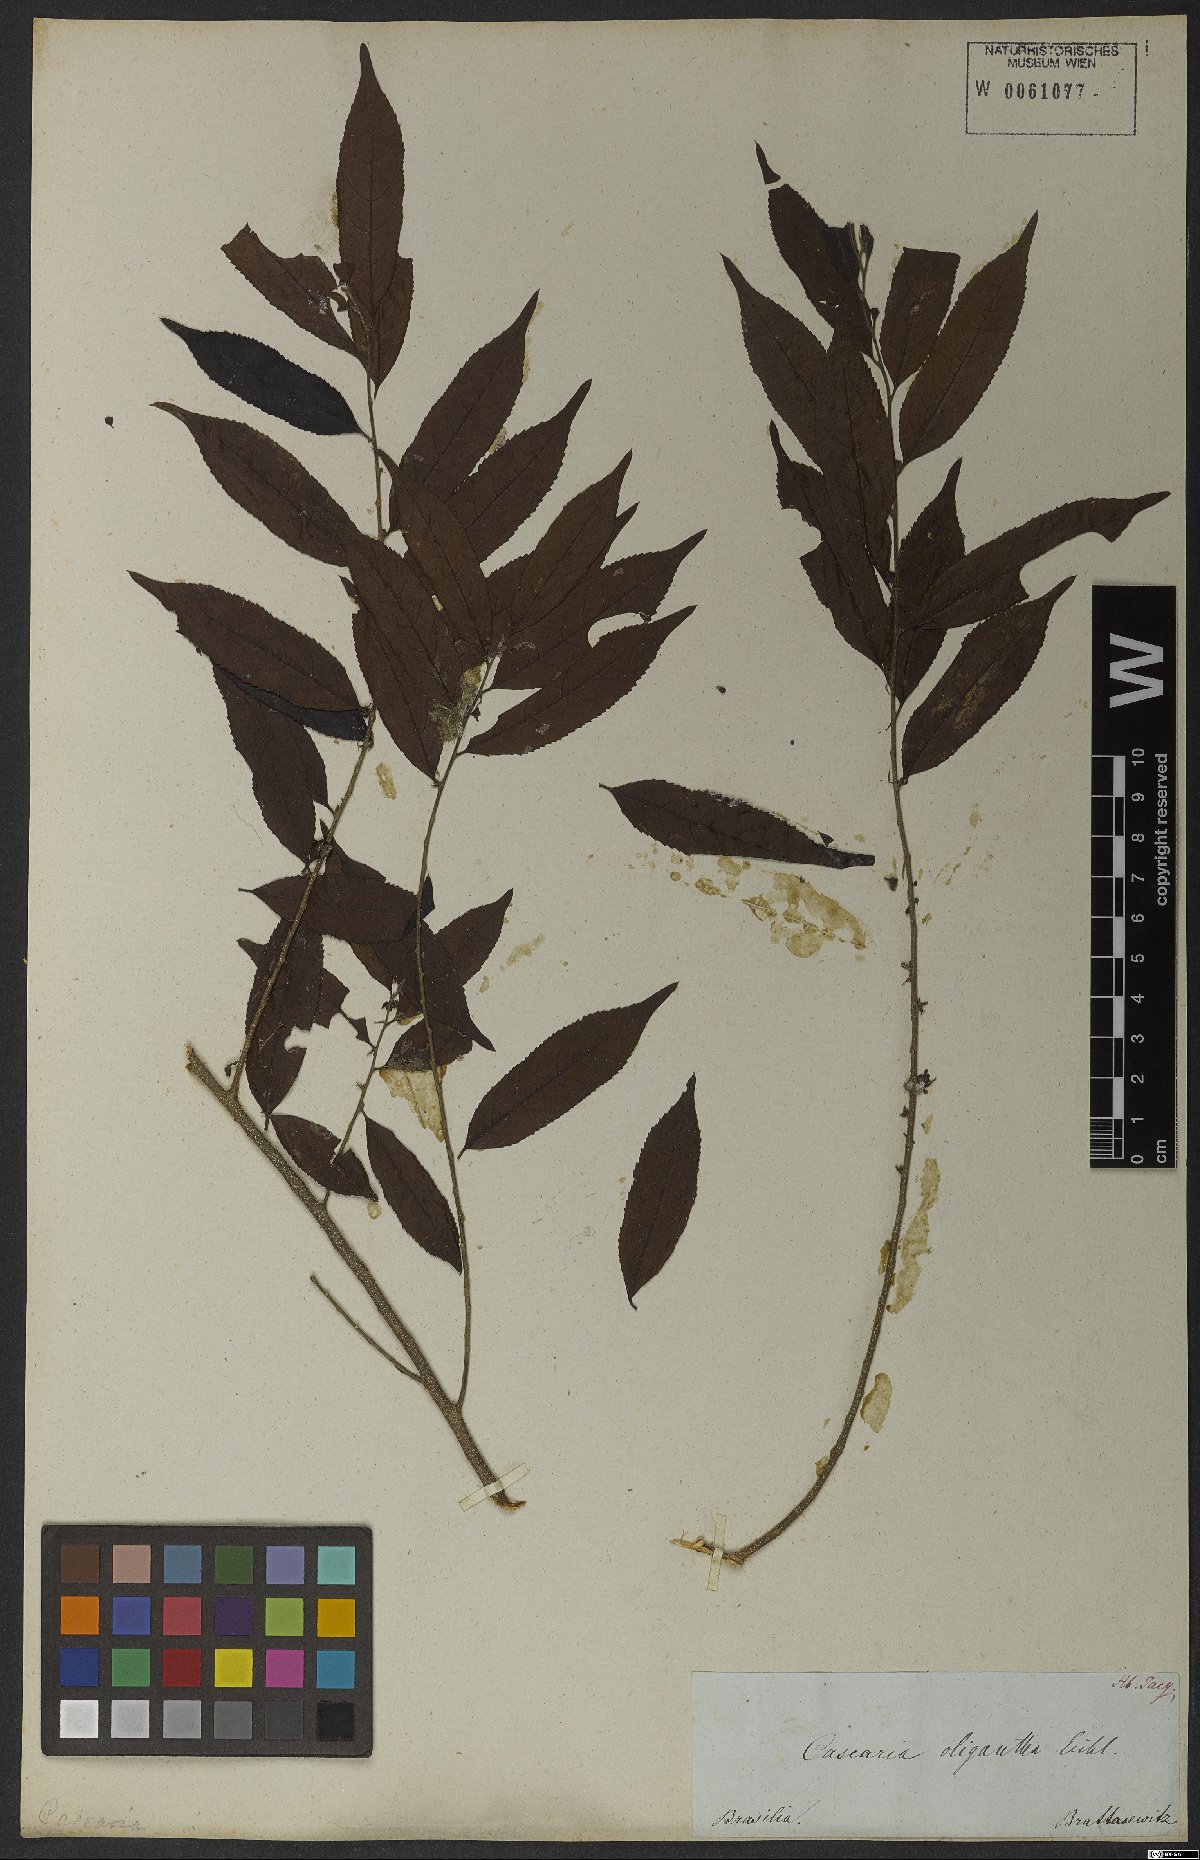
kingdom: Plantae
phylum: Tracheophyta
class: Magnoliopsida
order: Malpighiales
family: Salicaceae
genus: Casearia
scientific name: Casearia arborea
